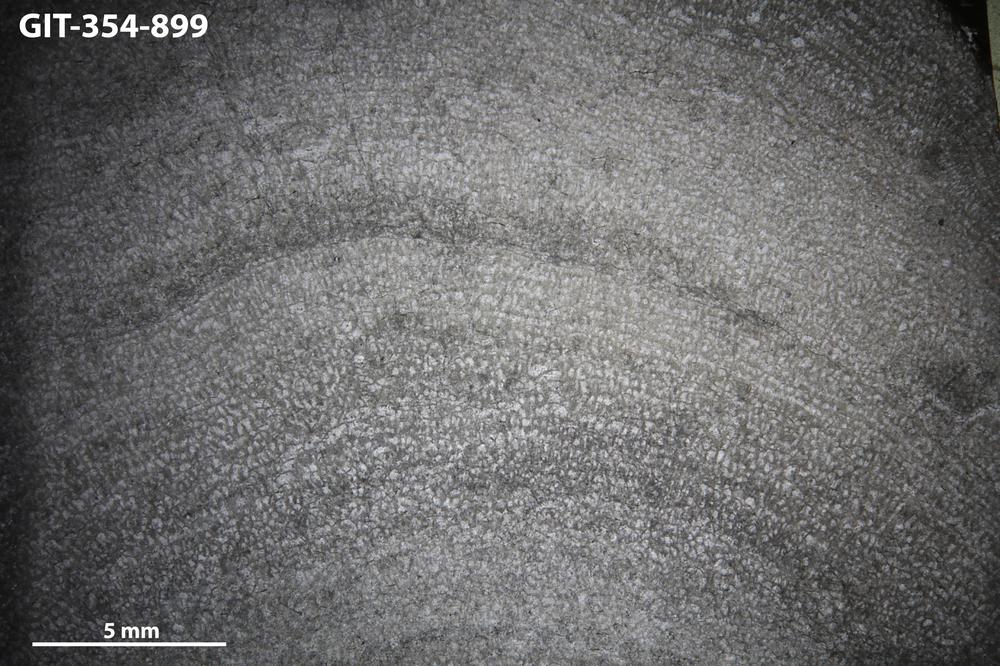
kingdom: Animalia
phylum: Porifera
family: Pseudolabechiidae
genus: Vikingia
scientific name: Vikingia
